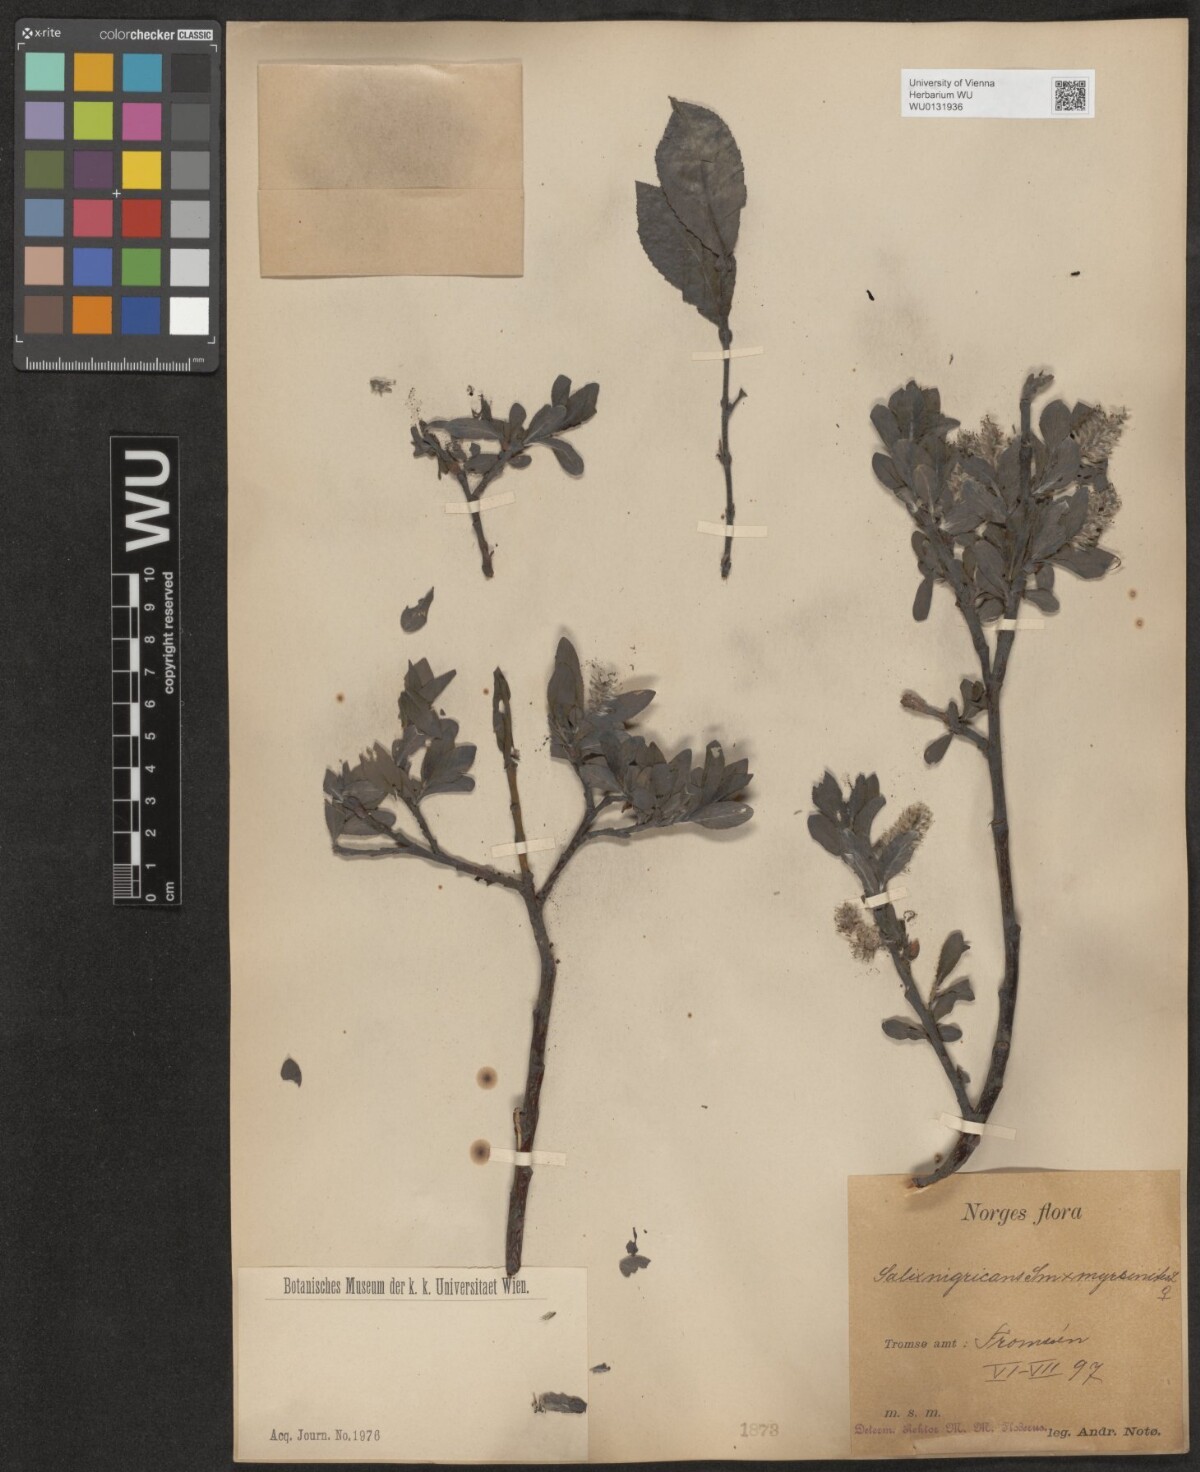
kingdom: Plantae
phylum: Tracheophyta
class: Magnoliopsida
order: Malpighiales
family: Salicaceae
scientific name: Salicaceae
